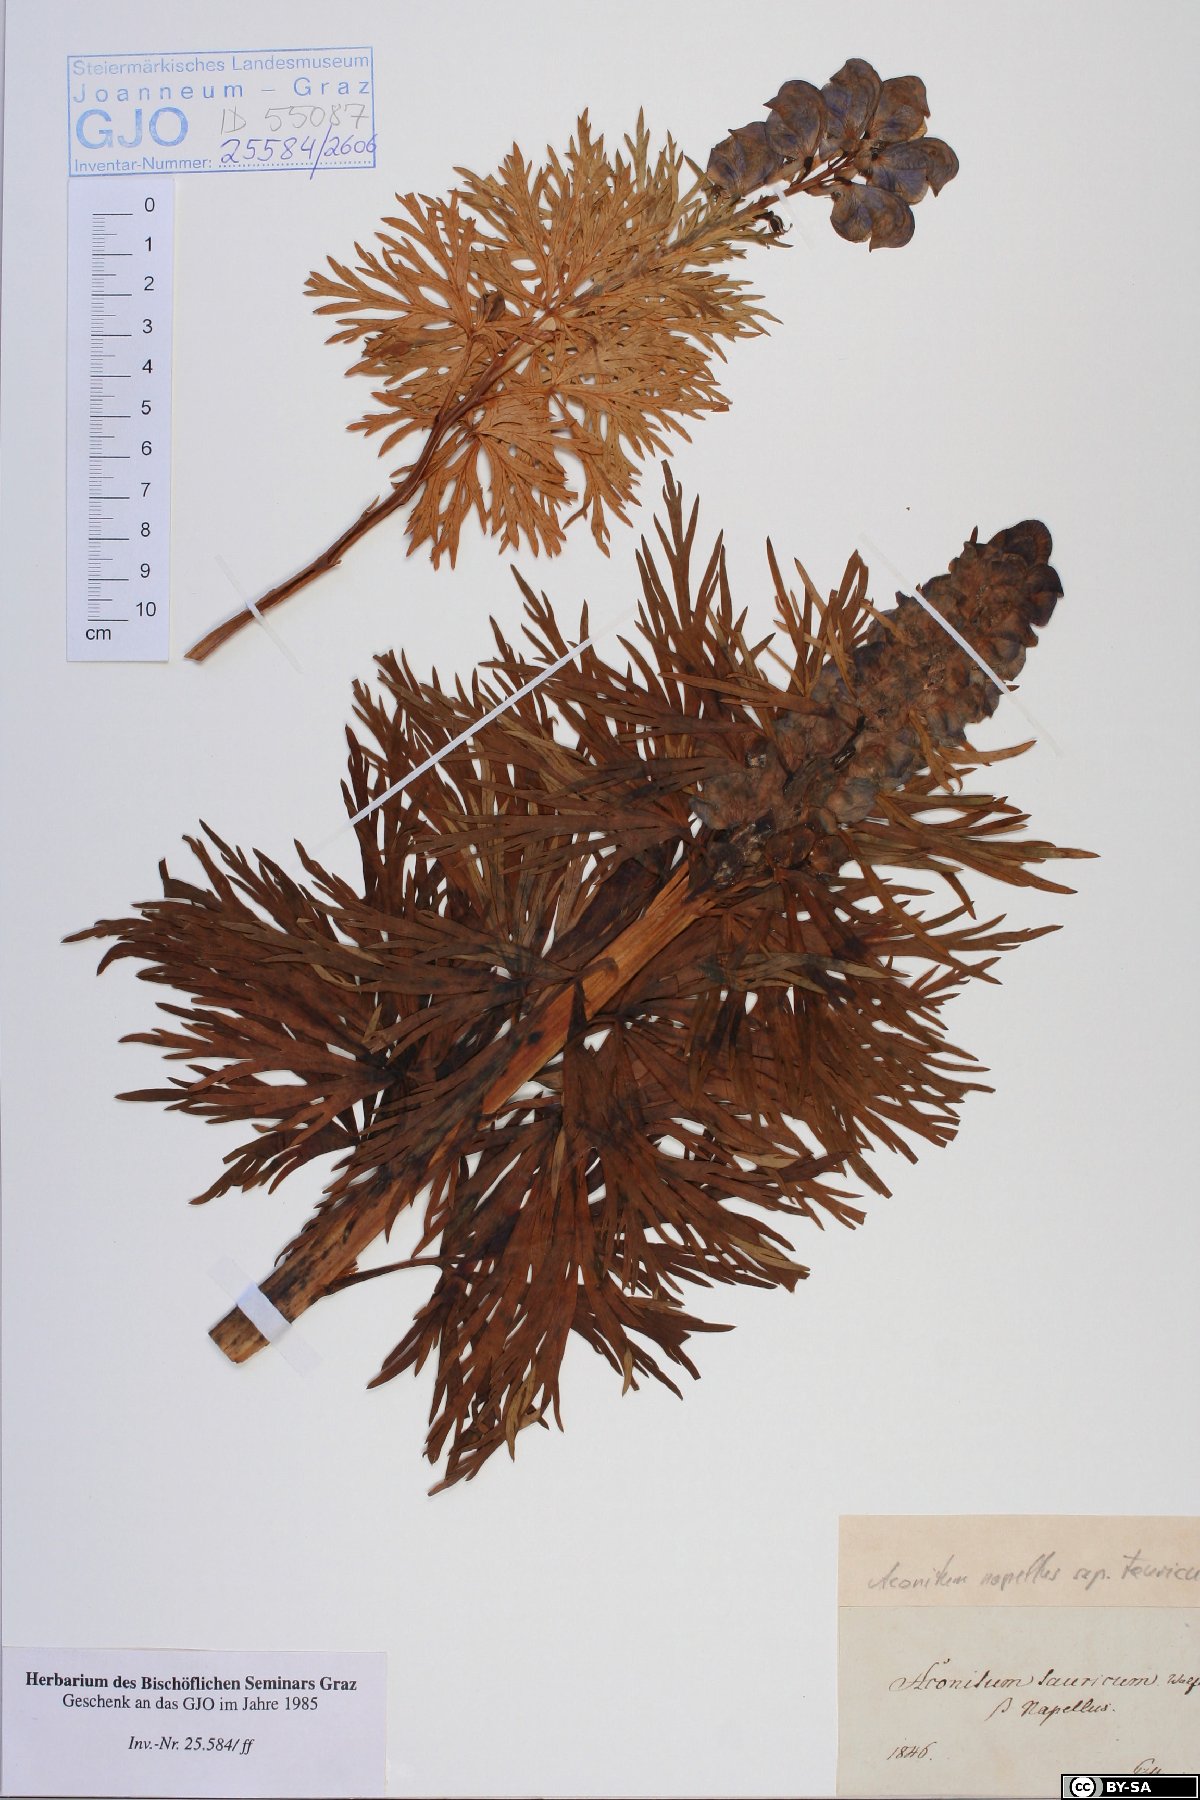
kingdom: Plantae
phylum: Tracheophyta
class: Magnoliopsida
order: Ranunculales
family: Ranunculaceae
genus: Aconitum
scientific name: Aconitum tauricum
